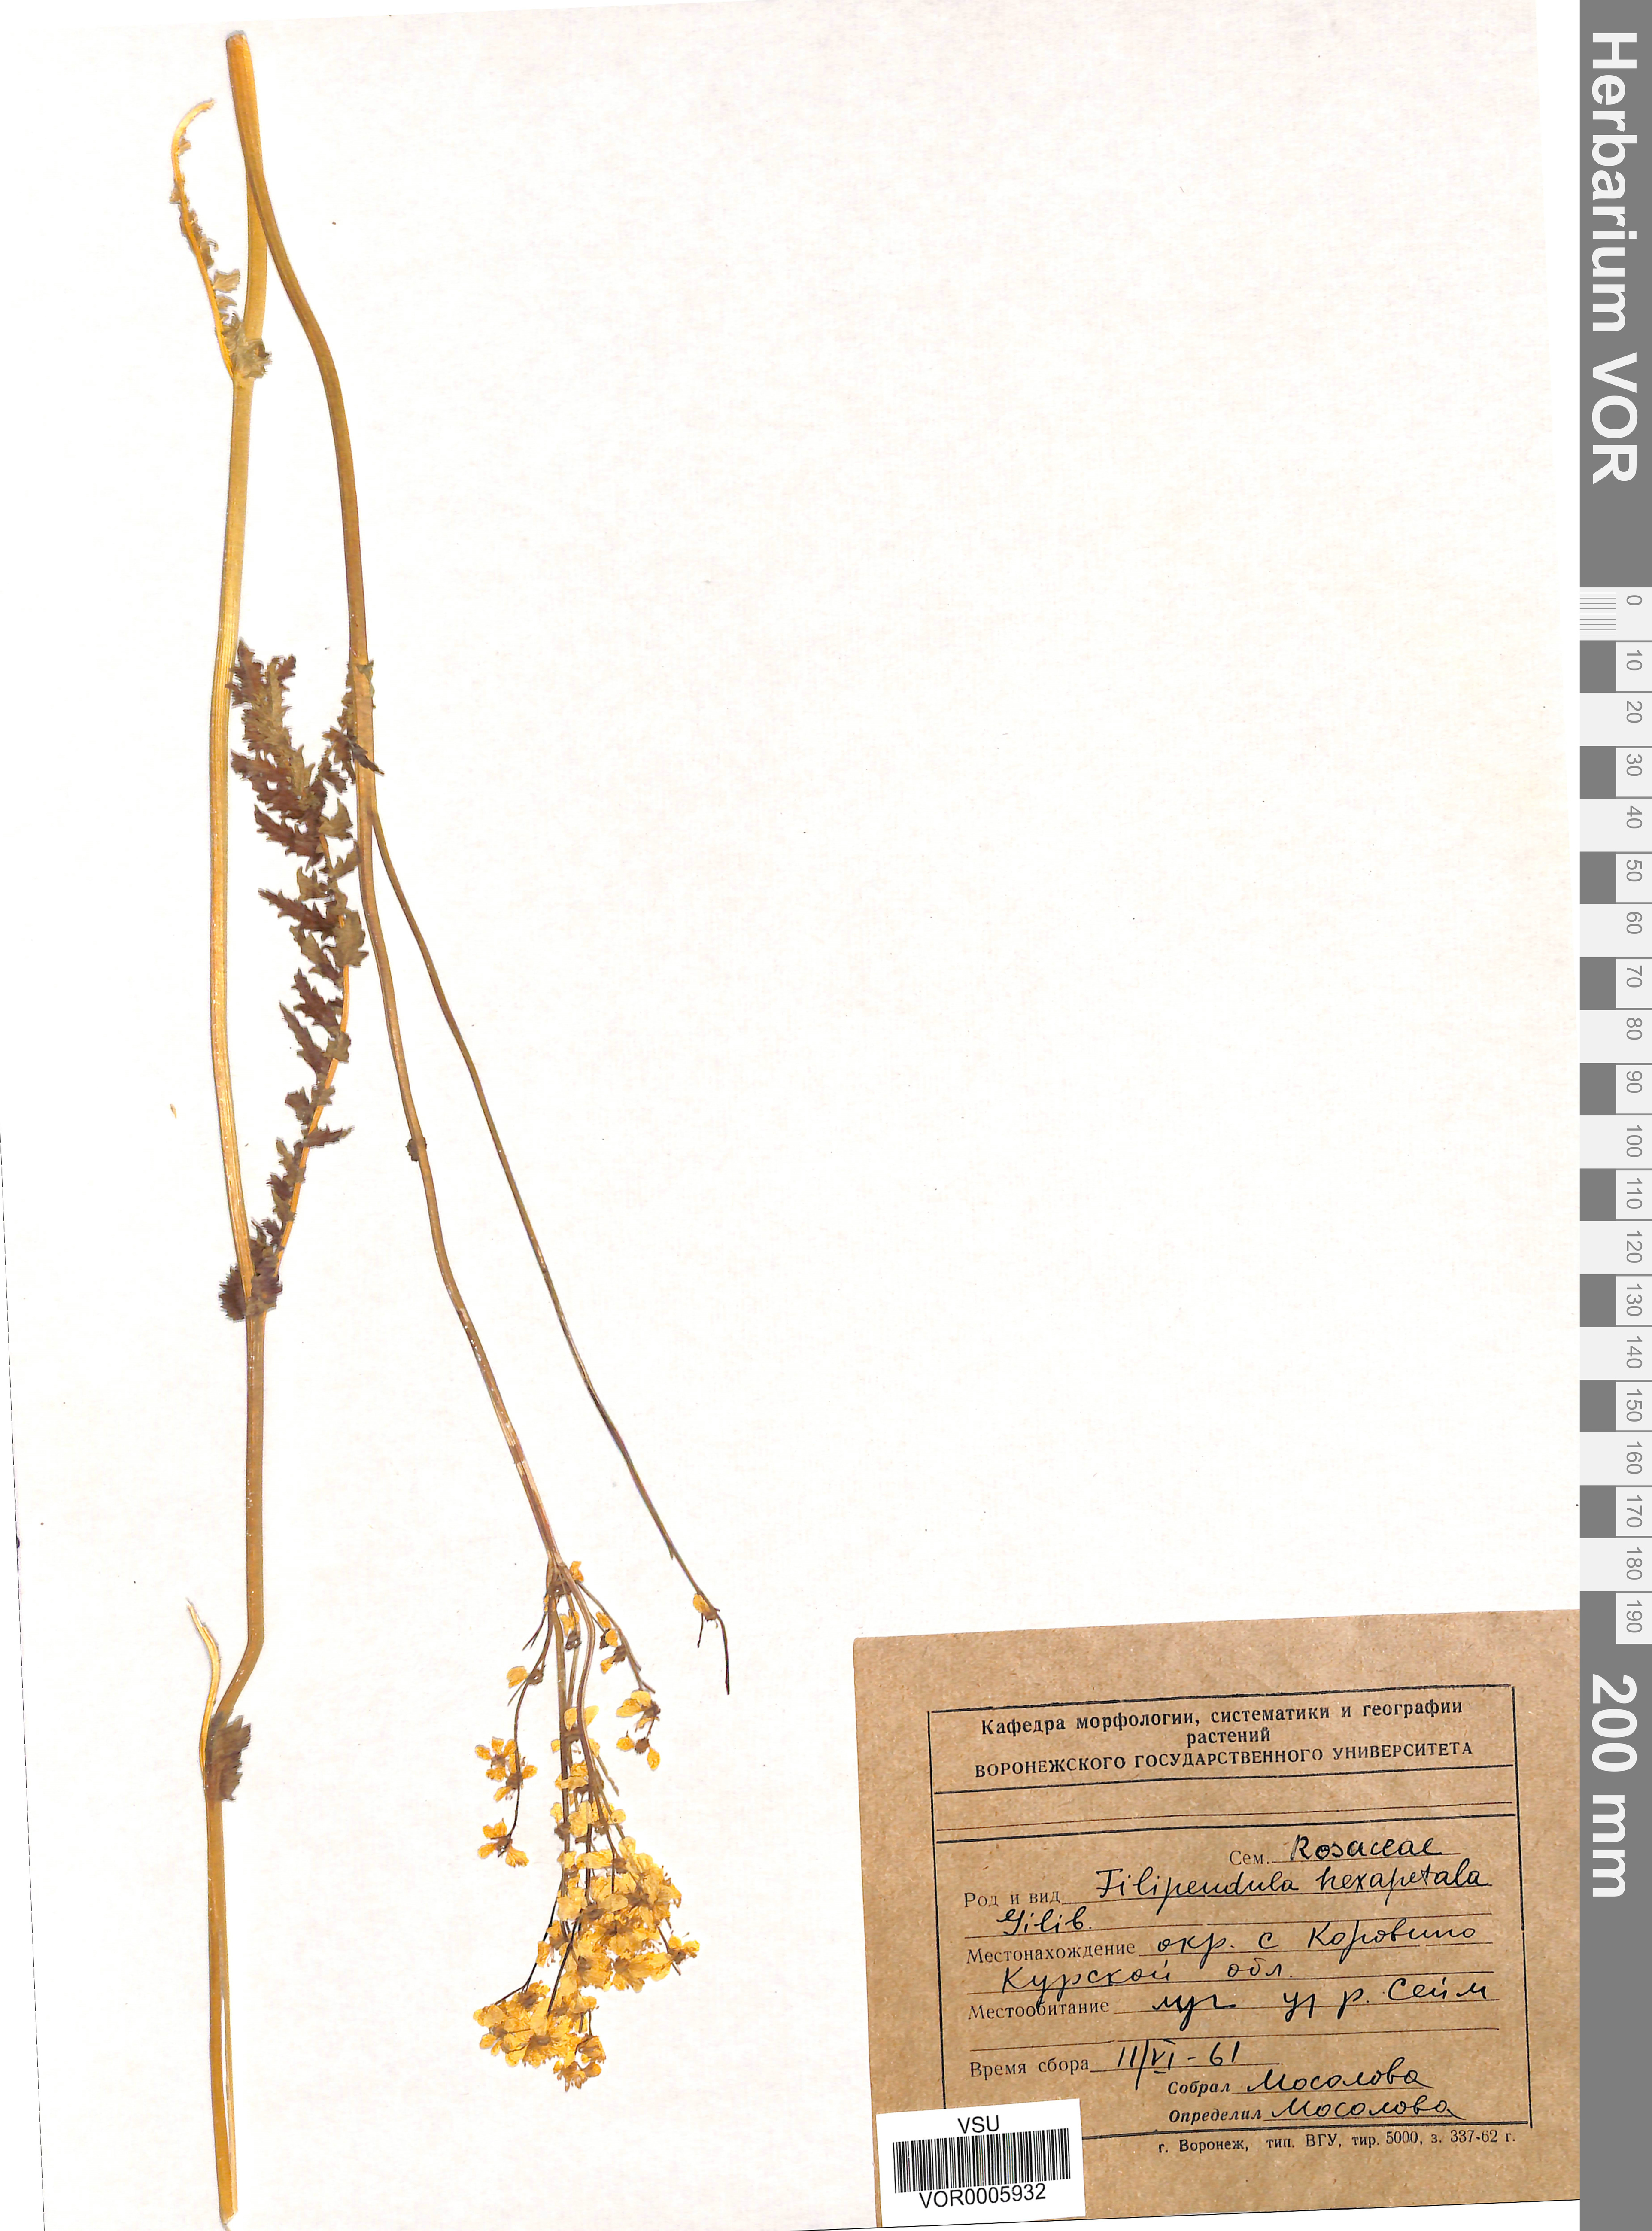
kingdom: Plantae
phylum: Tracheophyta
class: Magnoliopsida
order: Rosales
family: Rosaceae
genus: Filipendula
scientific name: Filipendula vulgaris
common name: Dropwort
